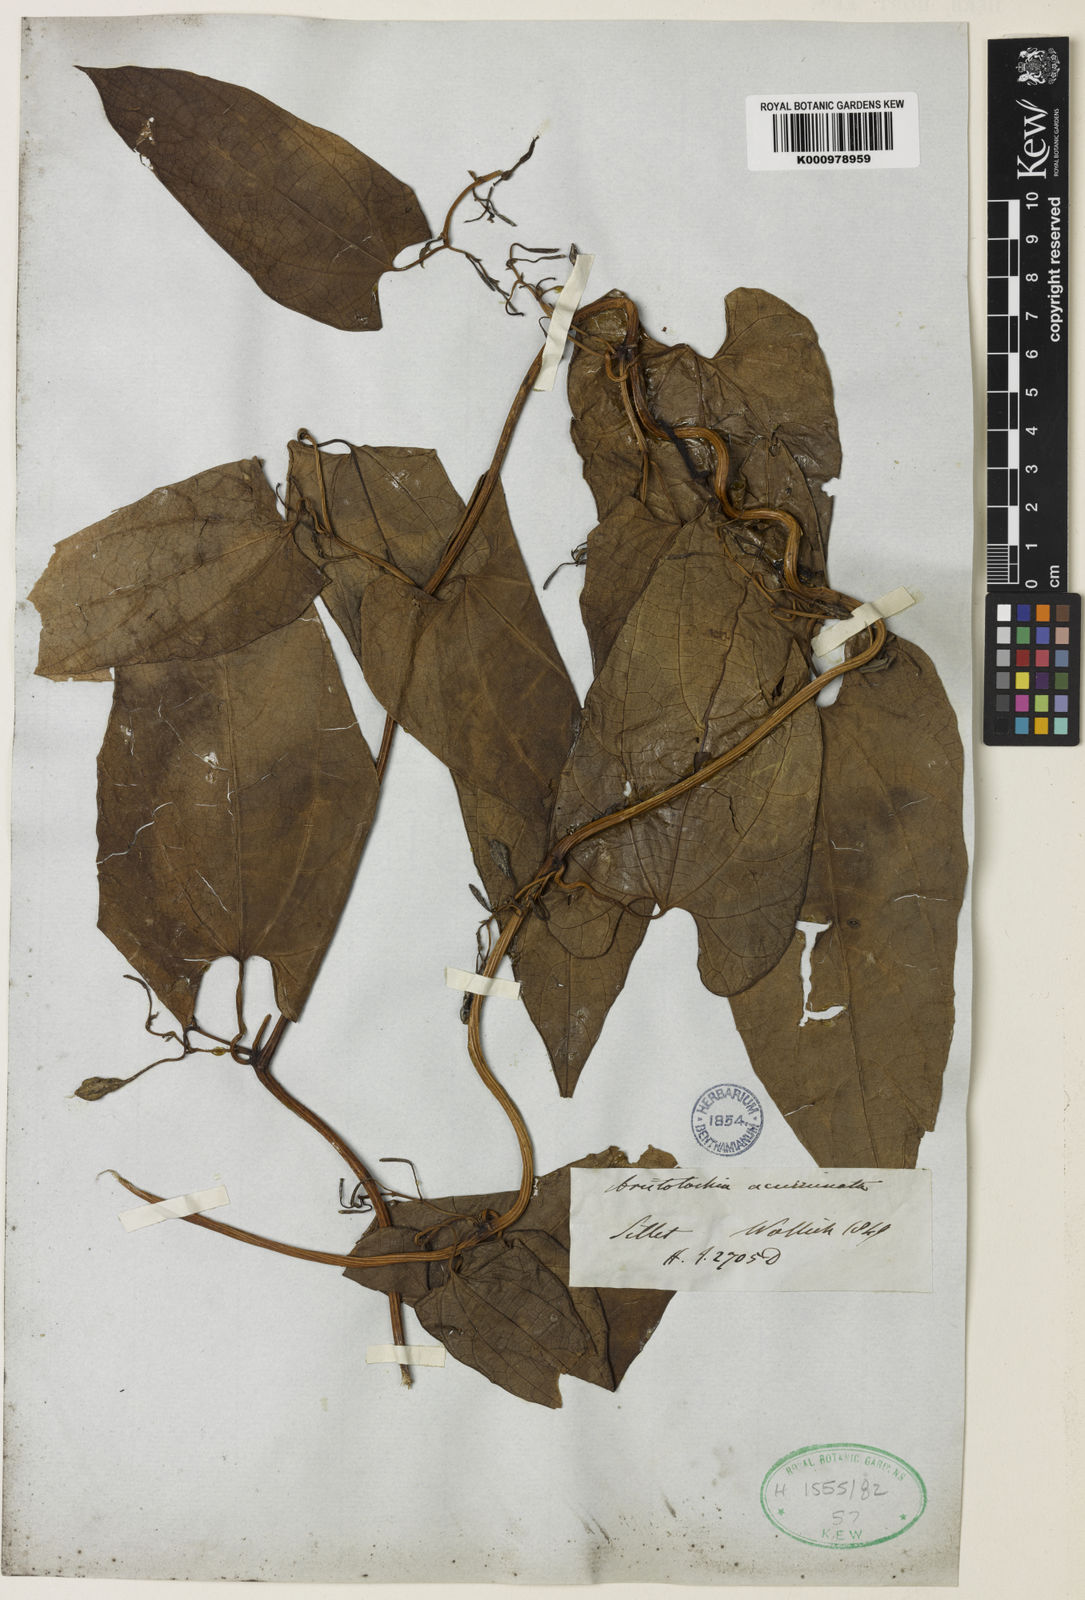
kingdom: Plantae
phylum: Tracheophyta
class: Magnoliopsida
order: Piperales
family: Aristolochiaceae
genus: Aristolochia
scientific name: Aristolochia acuminata
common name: Indian birthwort
